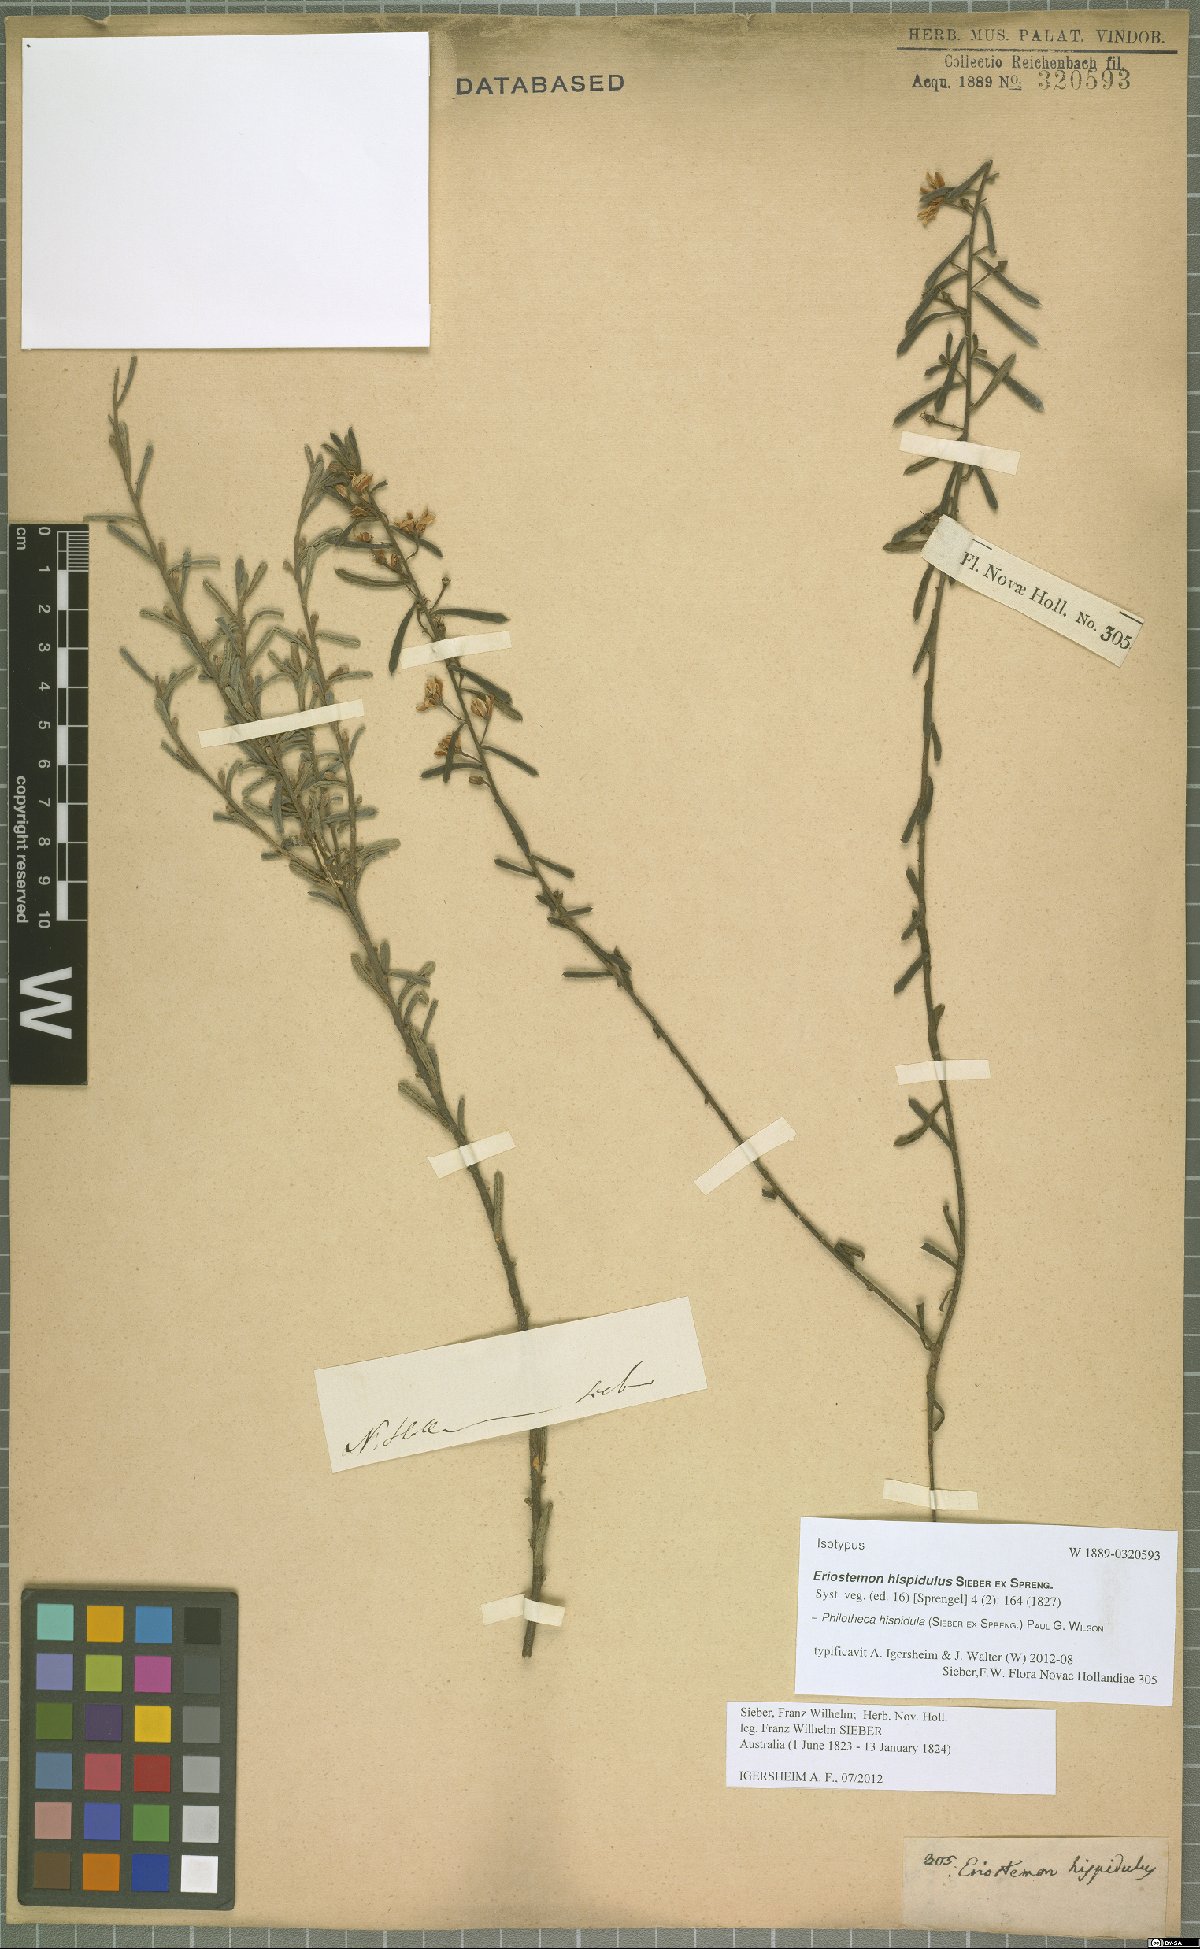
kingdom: Plantae
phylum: Tracheophyta
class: Magnoliopsida
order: Sapindales
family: Rutaceae
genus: Philotheca
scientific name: Philotheca hispidula
